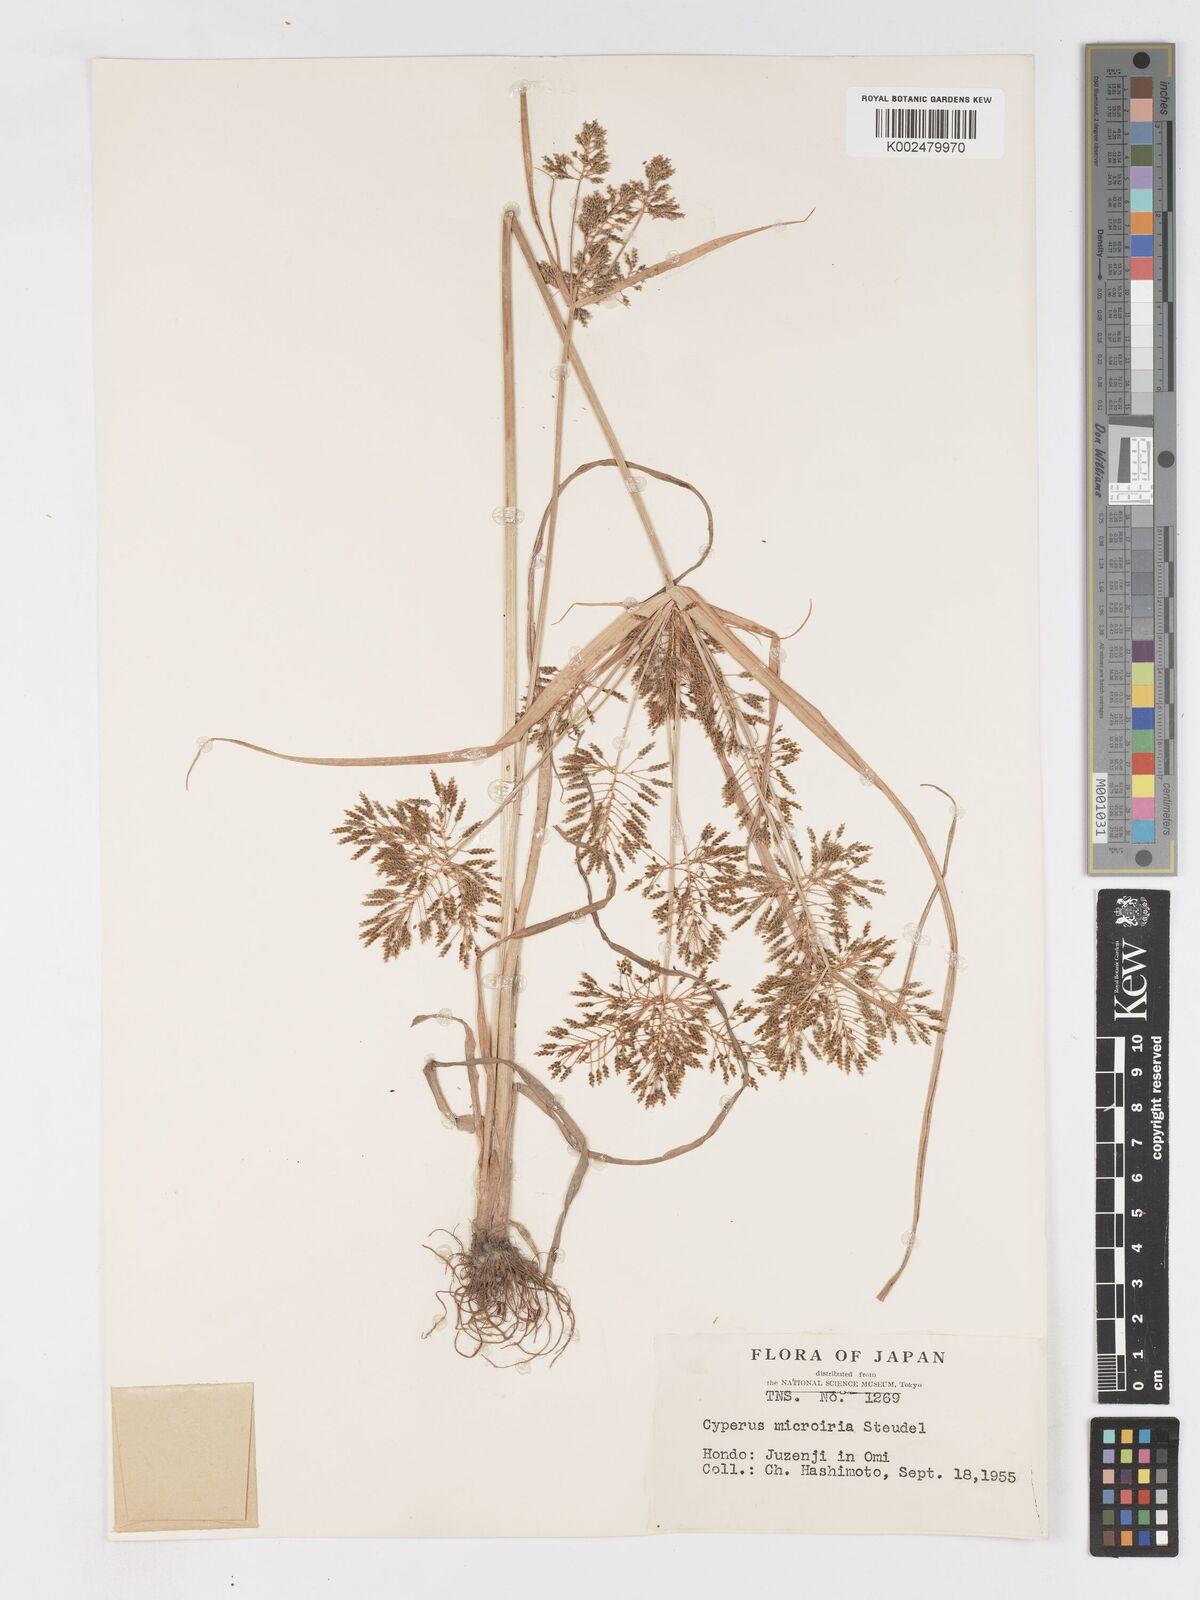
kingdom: Plantae
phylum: Tracheophyta
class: Liliopsida
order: Poales
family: Cyperaceae
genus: Cyperus
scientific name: Cyperus microiria
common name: Asian flatsedge
